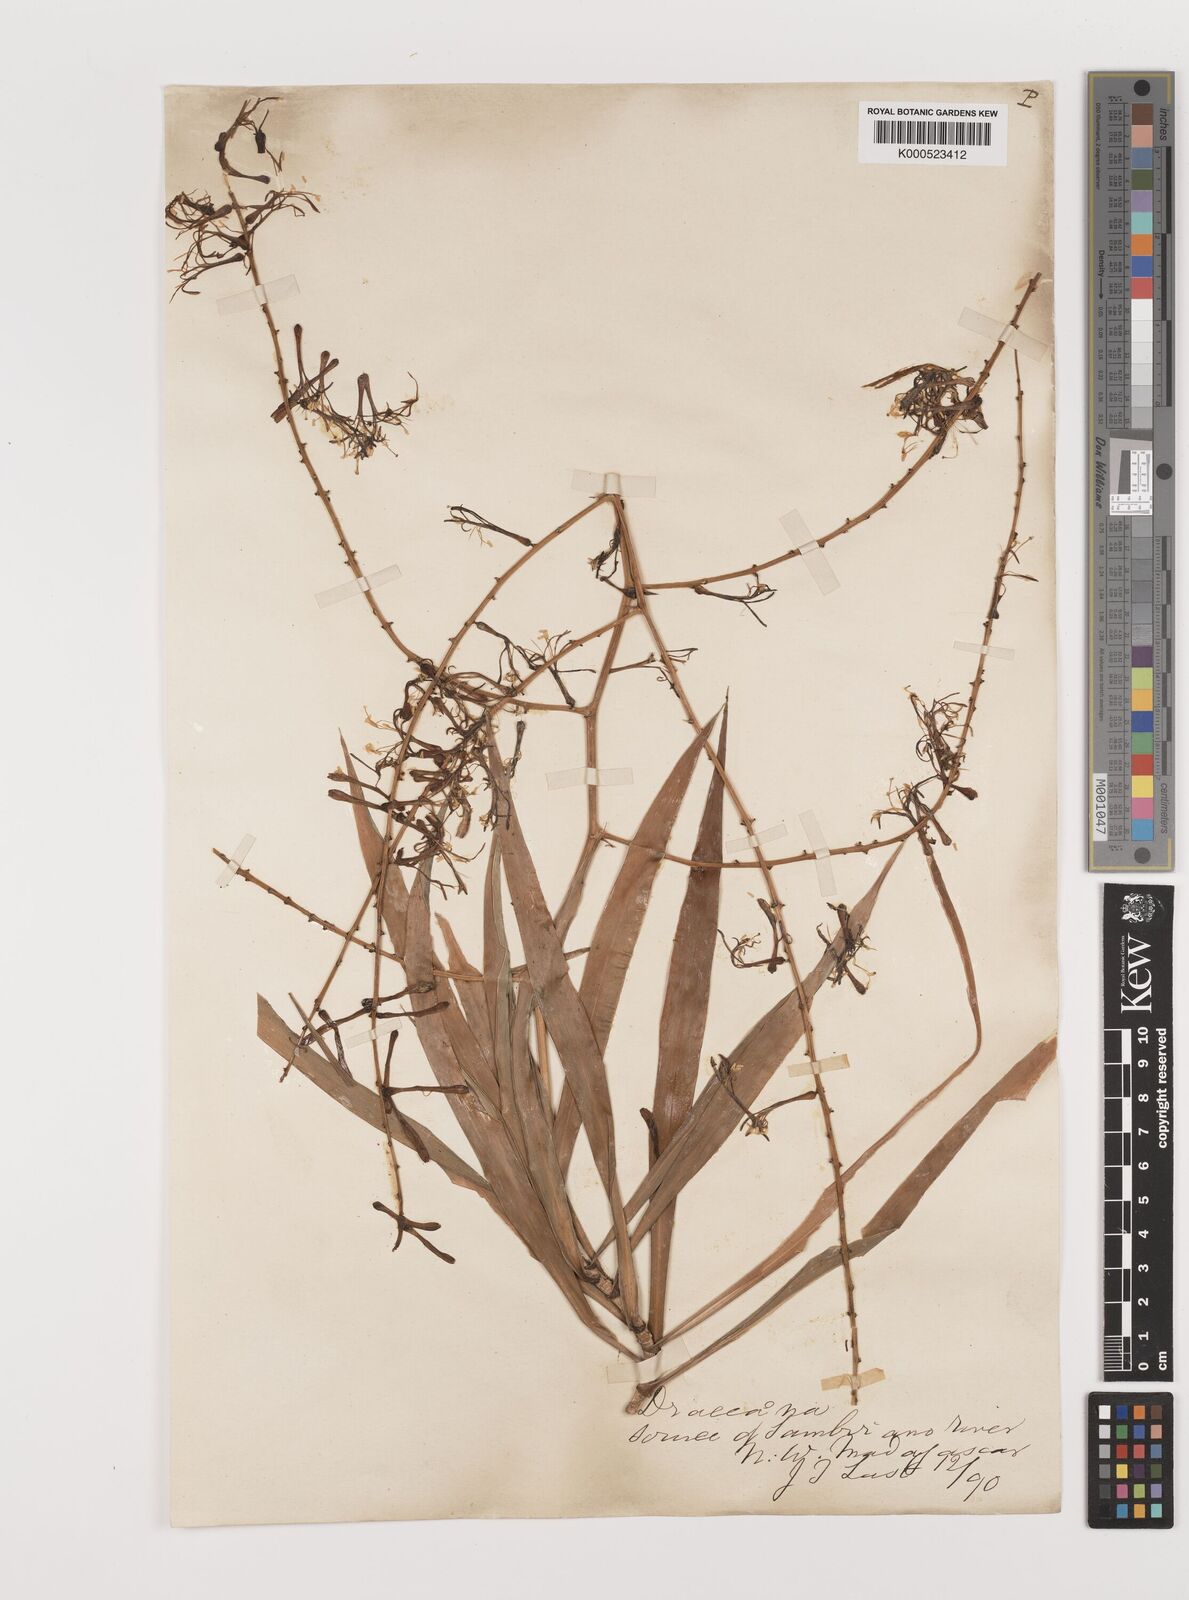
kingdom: Plantae
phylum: Tracheophyta
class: Liliopsida
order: Asparagales
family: Asparagaceae
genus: Dracaena
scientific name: Dracaena reflexa
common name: Song-of-india
